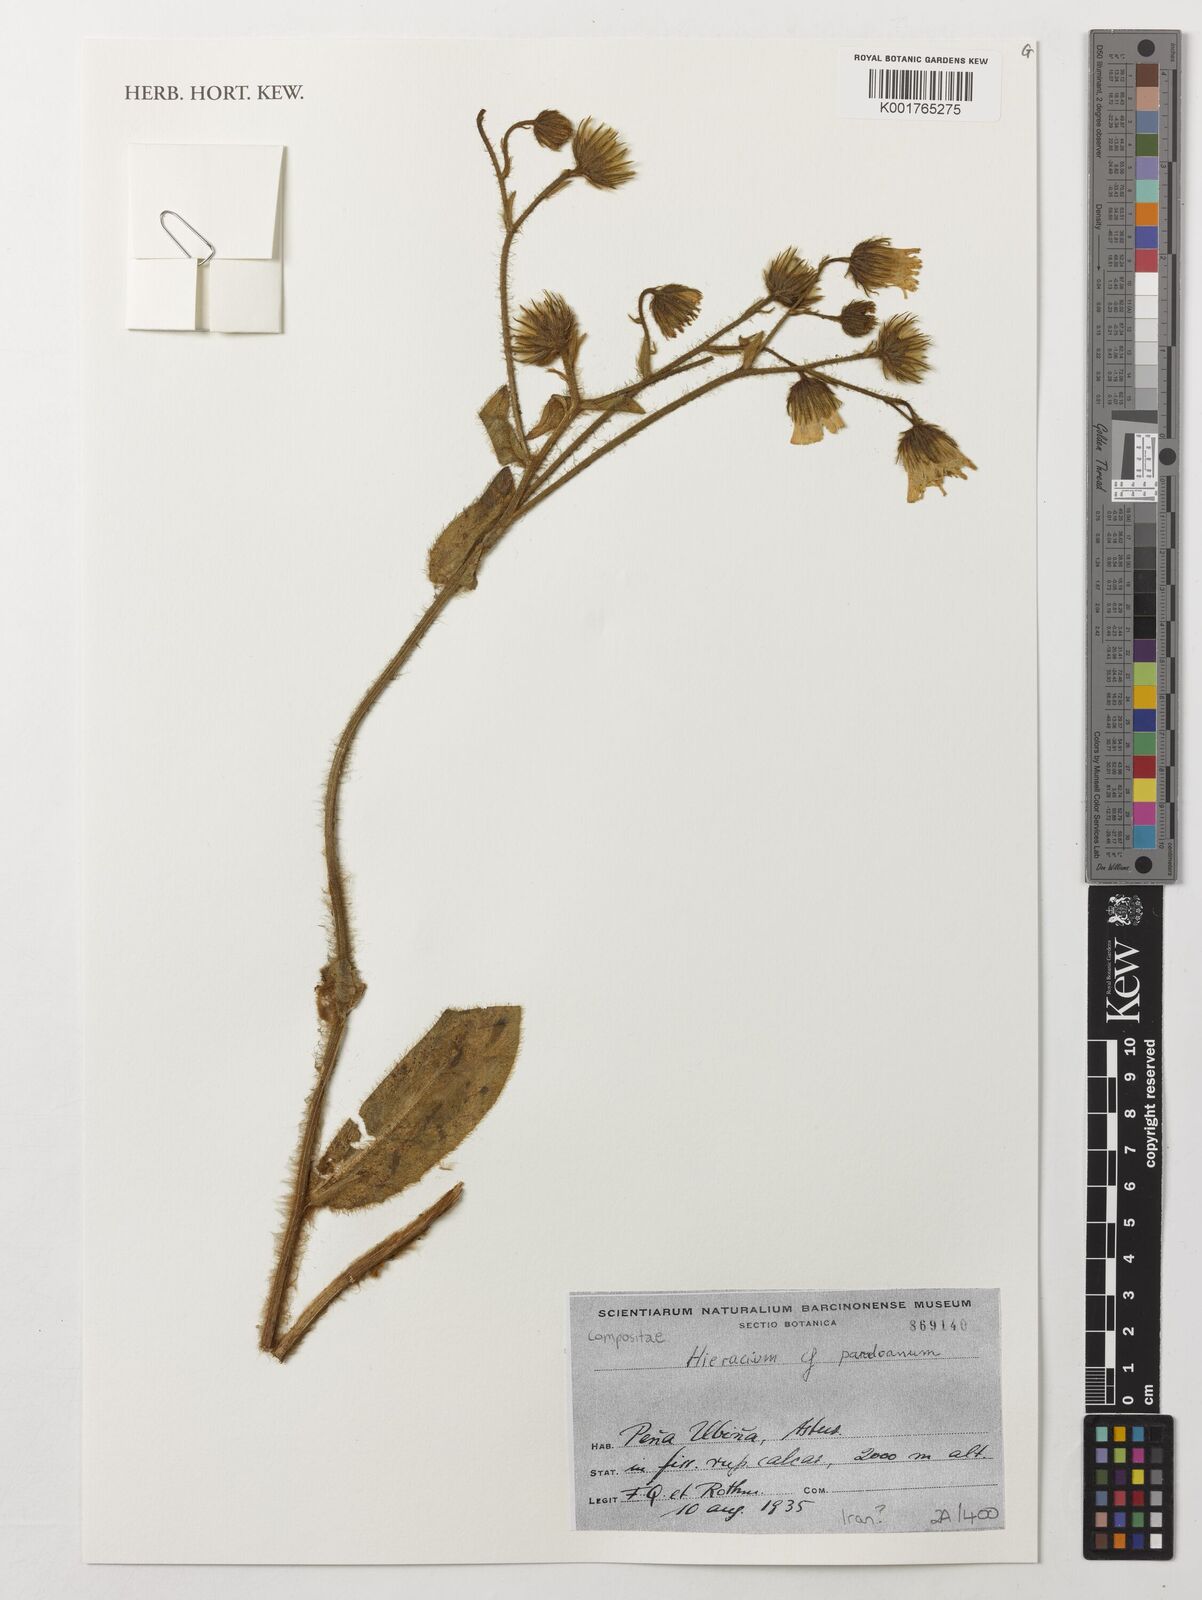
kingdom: Plantae
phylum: Tracheophyta
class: Magnoliopsida
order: Asterales
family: Asteraceae
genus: Hieracium
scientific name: Hieracium baenitzianum
